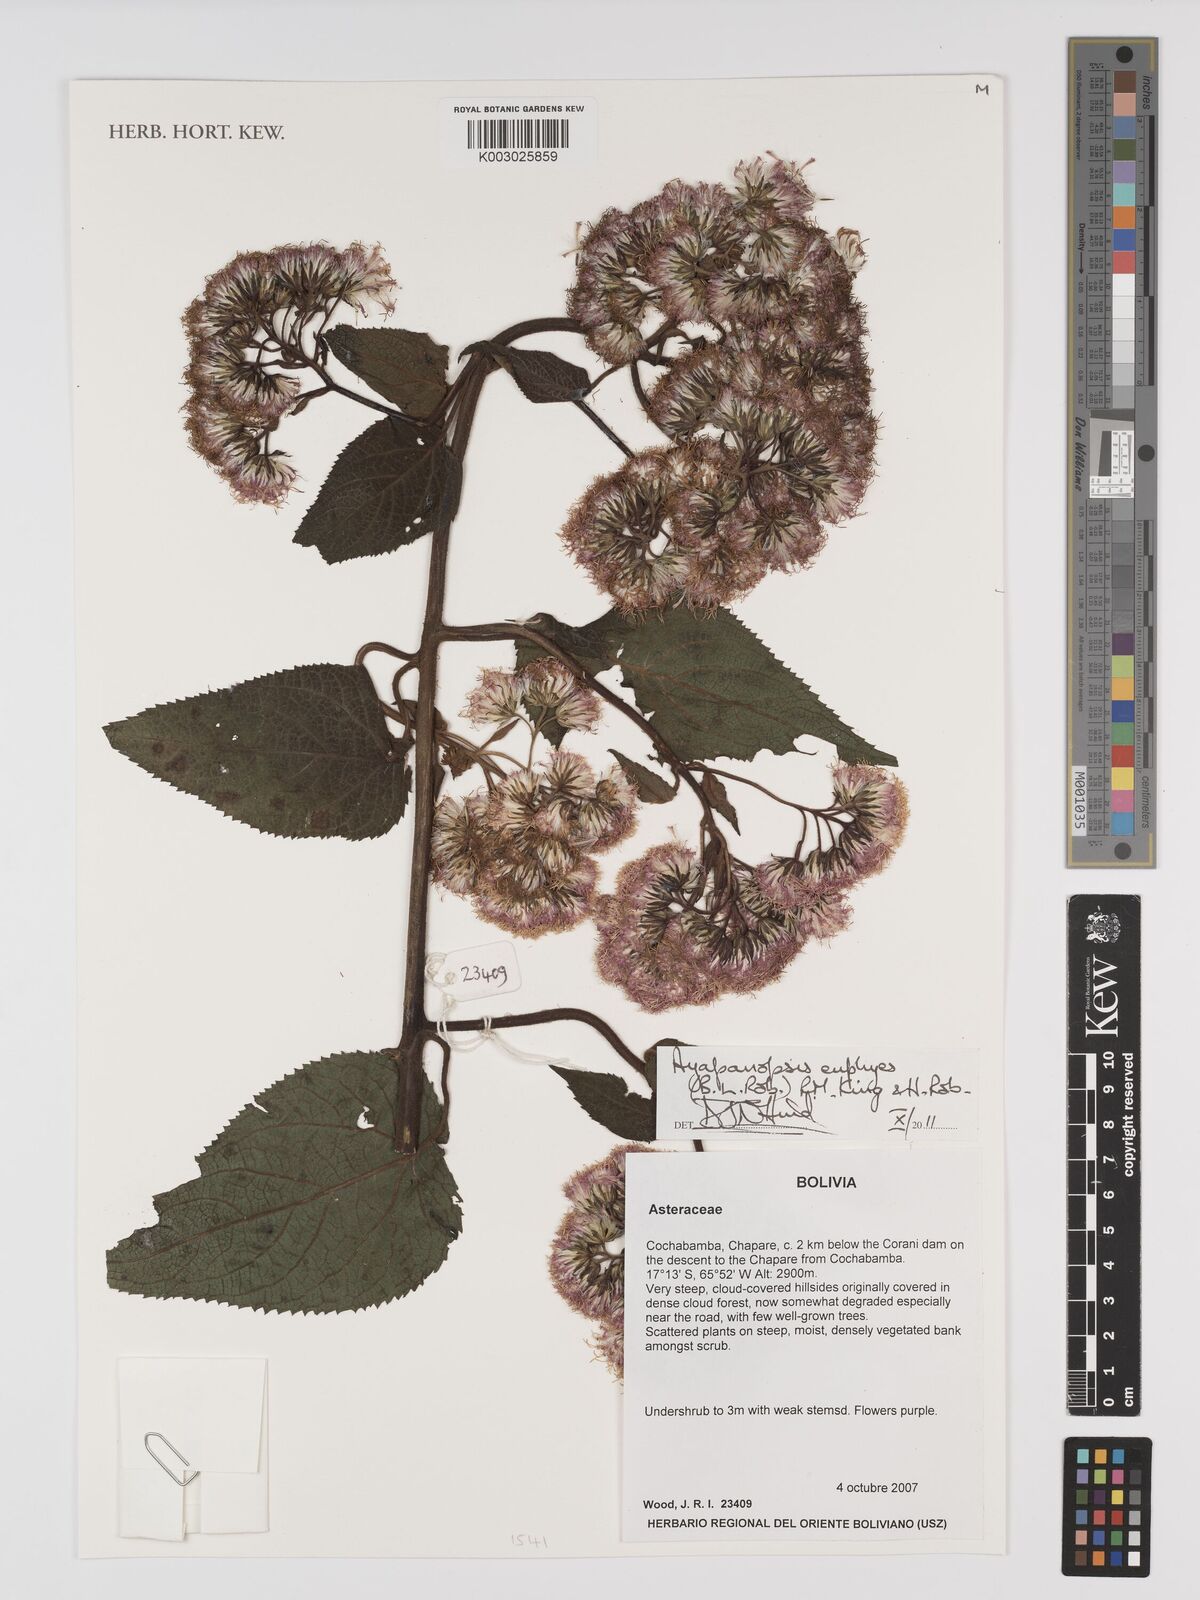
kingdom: Plantae
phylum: Tracheophyta
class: Magnoliopsida
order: Asterales
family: Asteraceae
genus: Ayapanopsis
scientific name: Ayapanopsis euphyes
